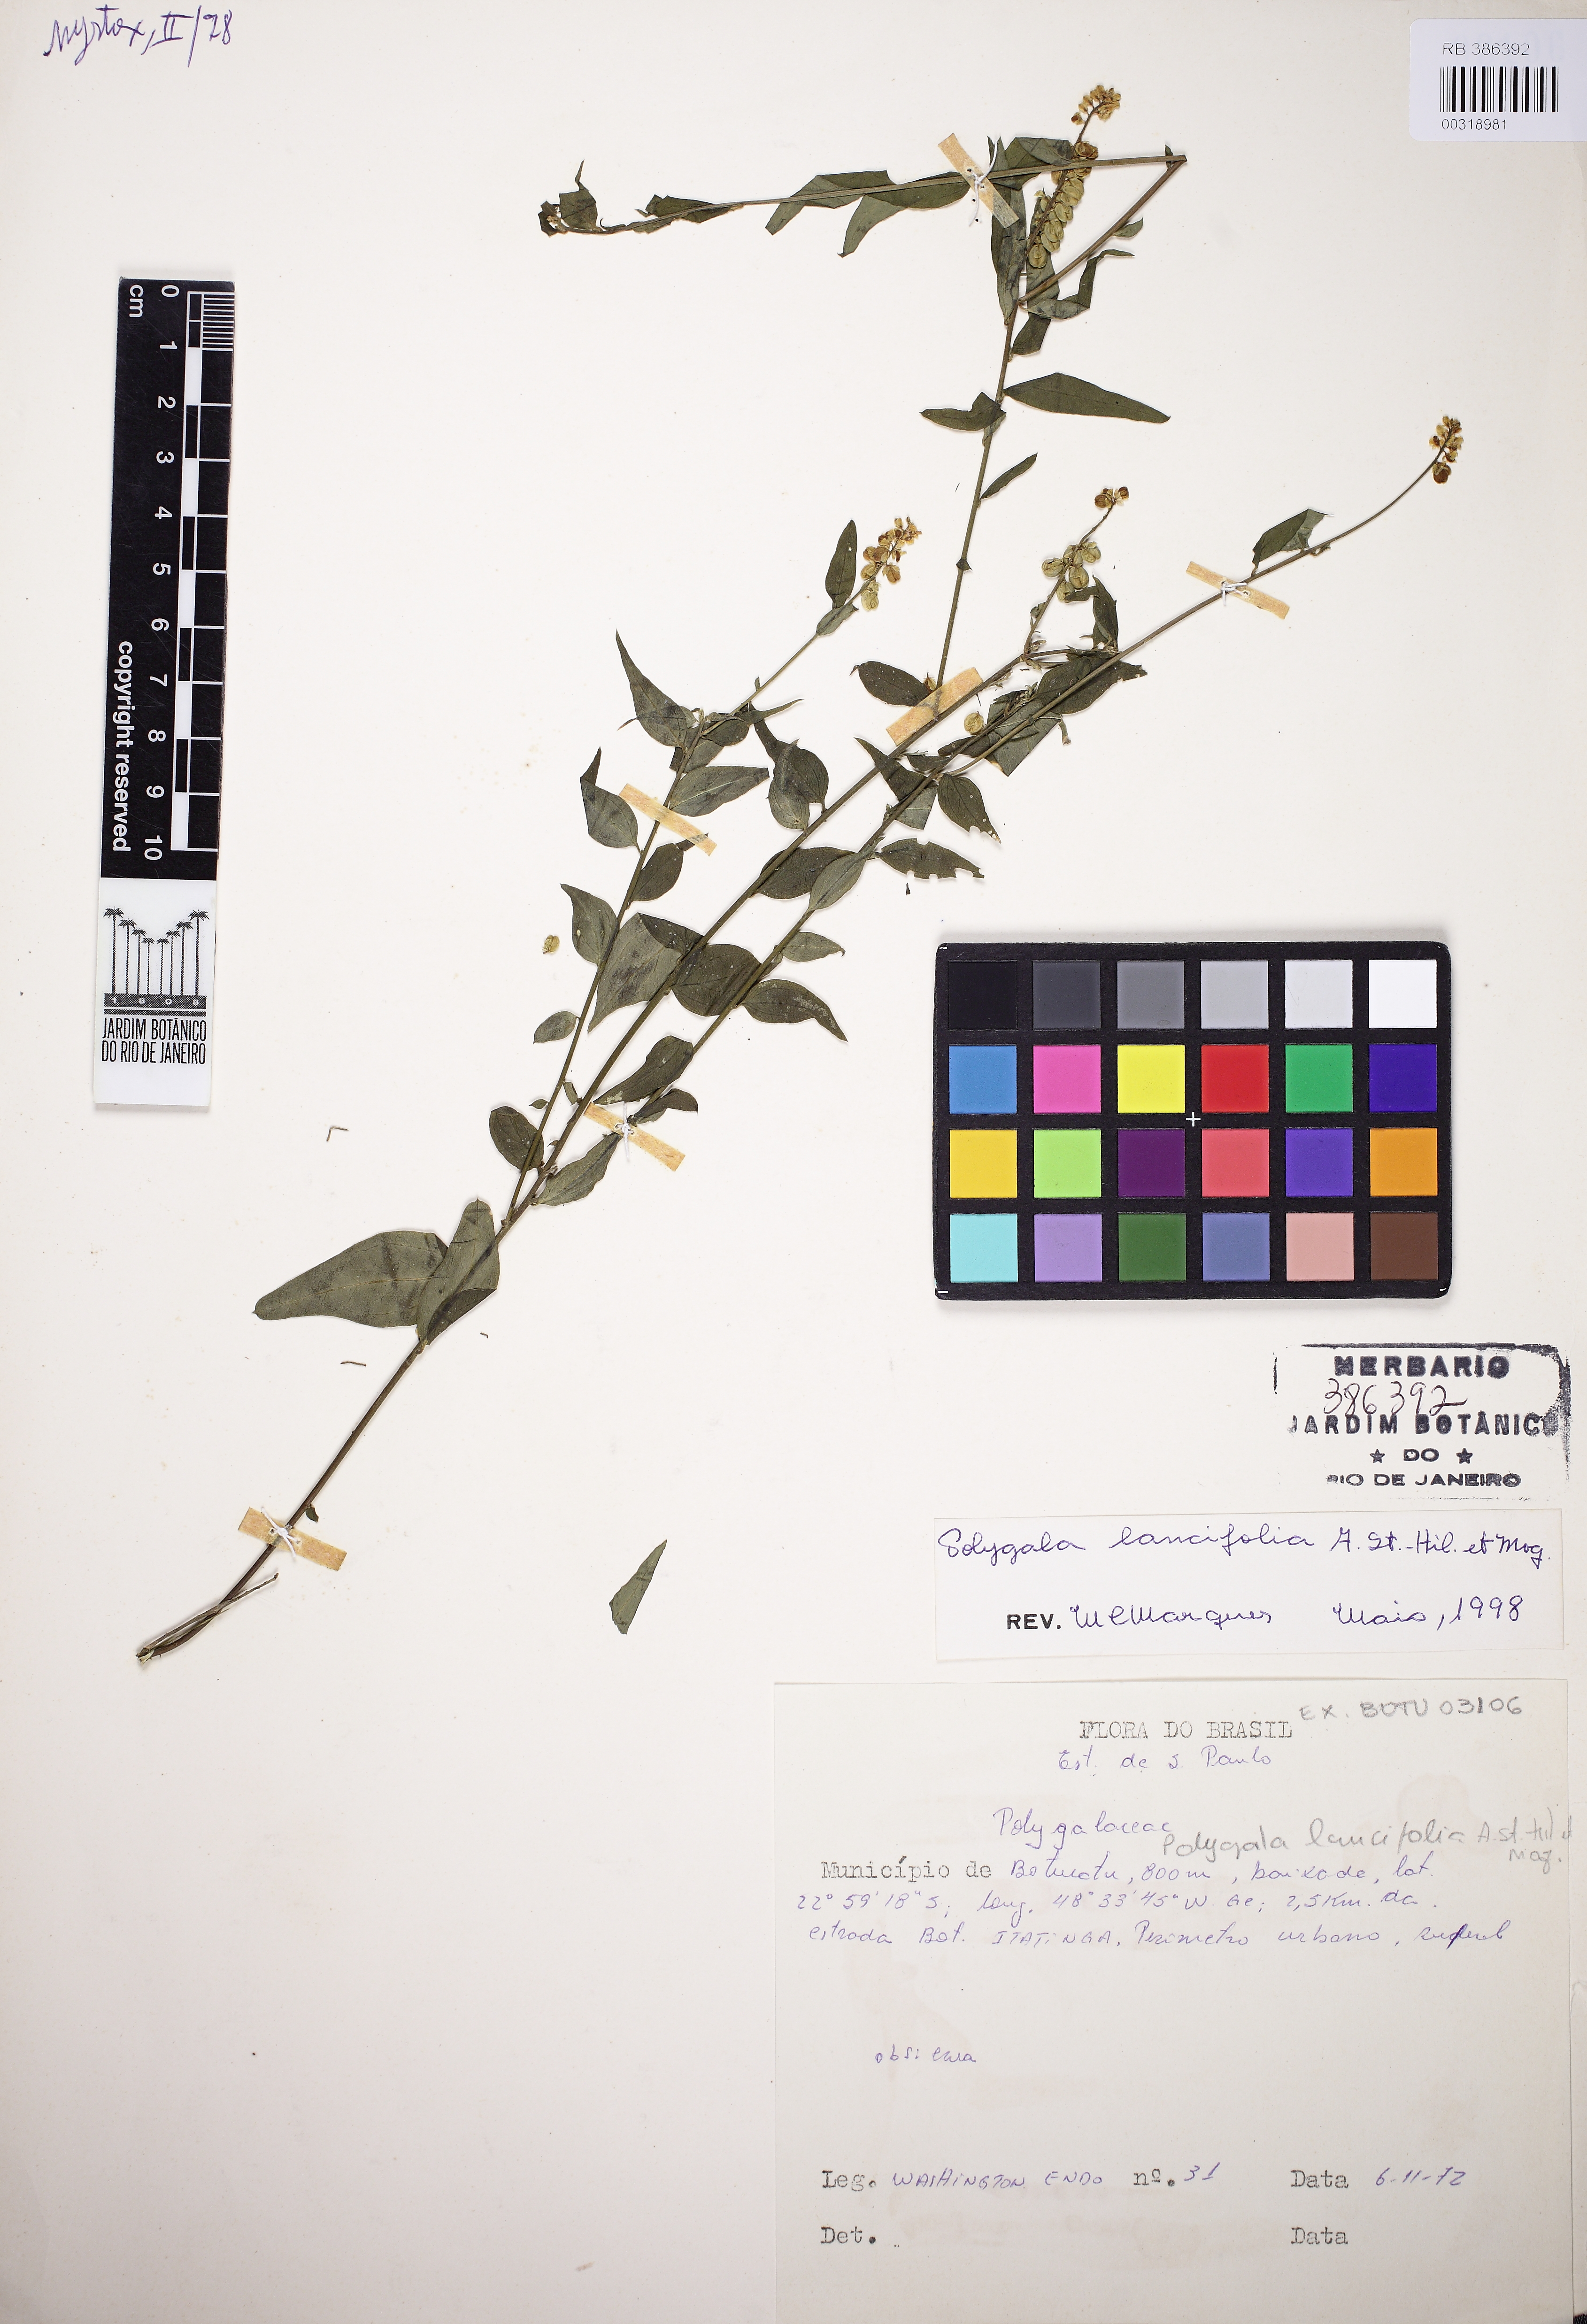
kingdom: Plantae
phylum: Tracheophyta
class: Magnoliopsida
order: Fabales
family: Polygalaceae
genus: Polygala
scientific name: Polygala lancifolia
